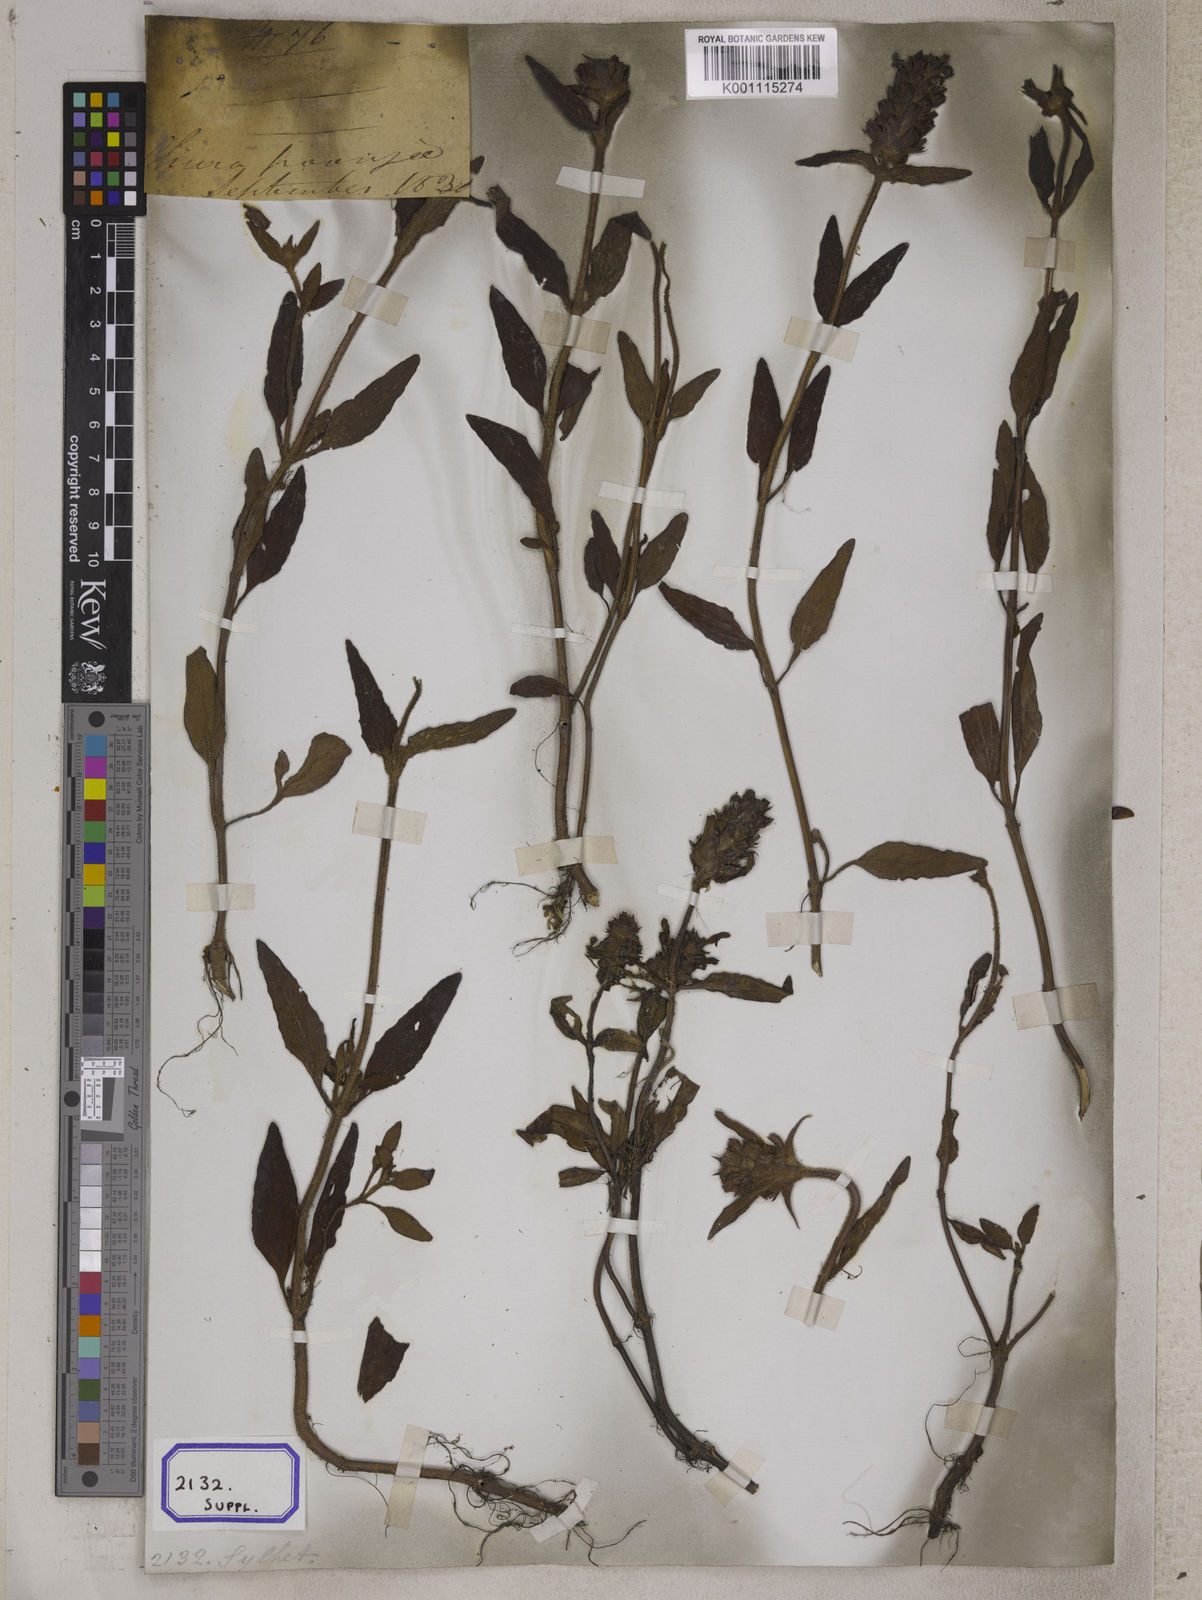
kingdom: Plantae
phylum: Tracheophyta
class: Magnoliopsida
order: Lamiales
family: Lamiaceae
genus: Prunella
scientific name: Prunella vulgaris
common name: Heal-all
